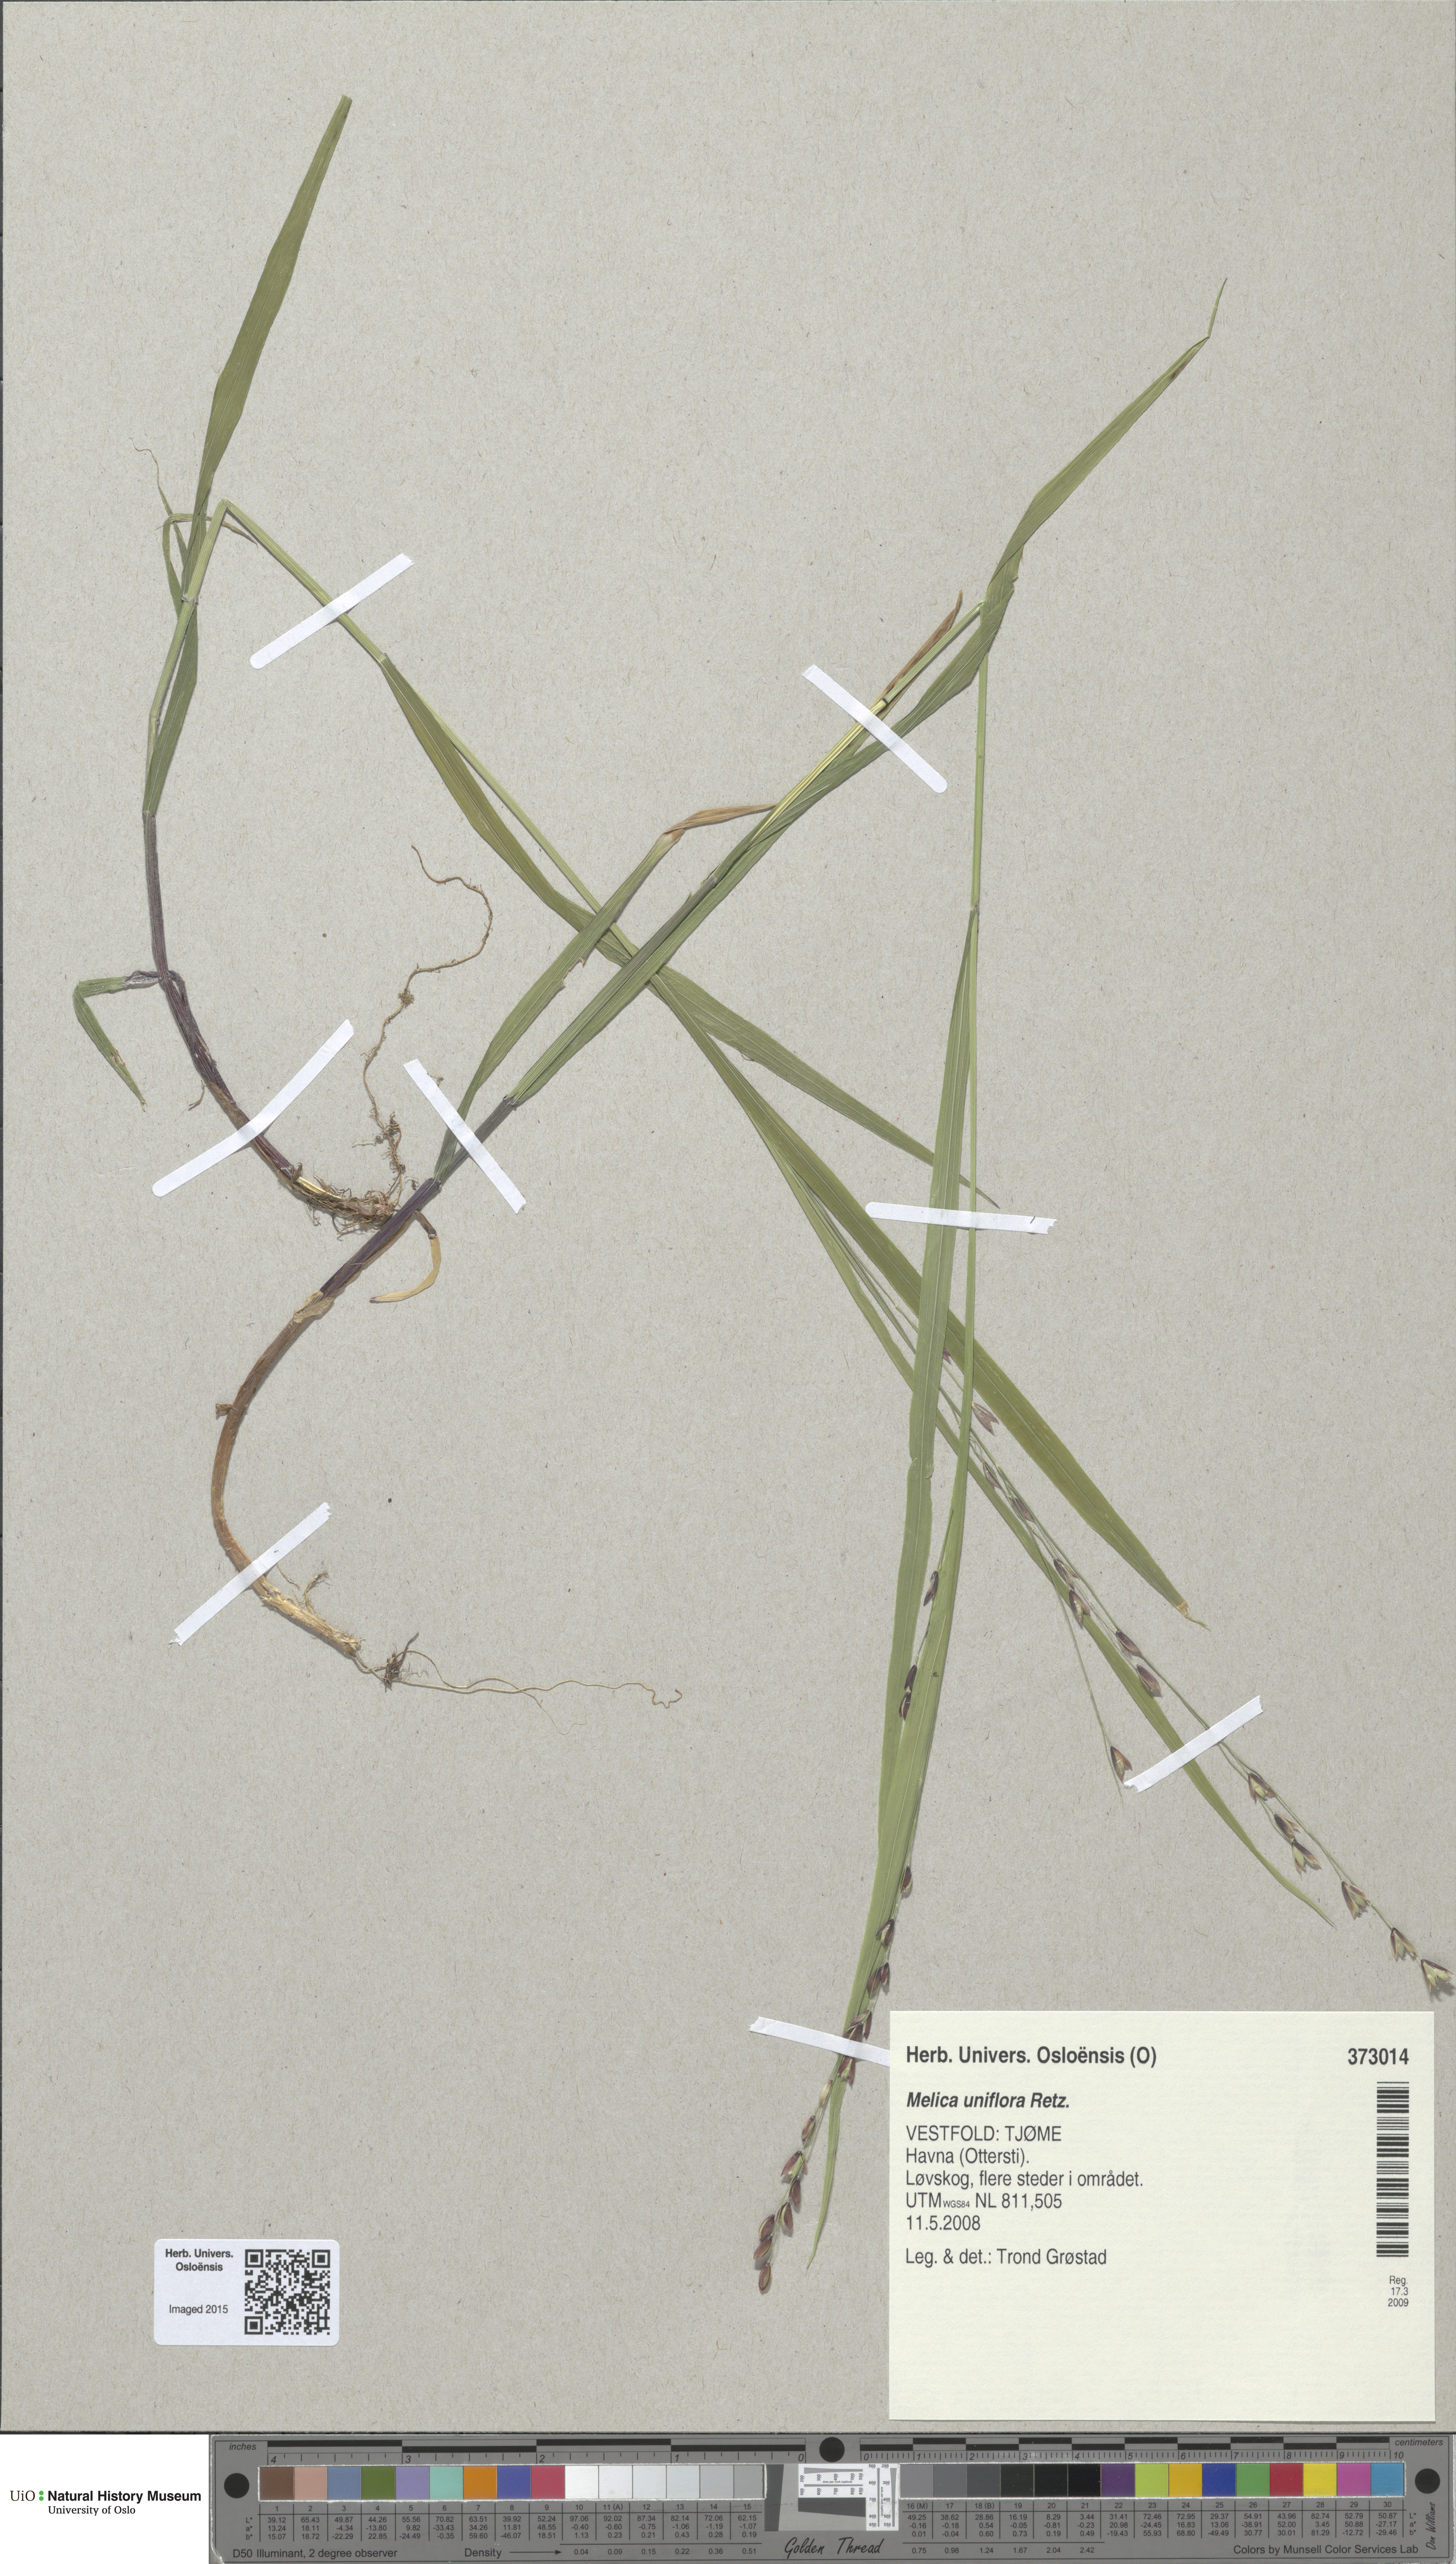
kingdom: Plantae
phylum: Tracheophyta
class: Liliopsida
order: Poales
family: Poaceae
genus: Melica
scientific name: Melica uniflora
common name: Wood melick
